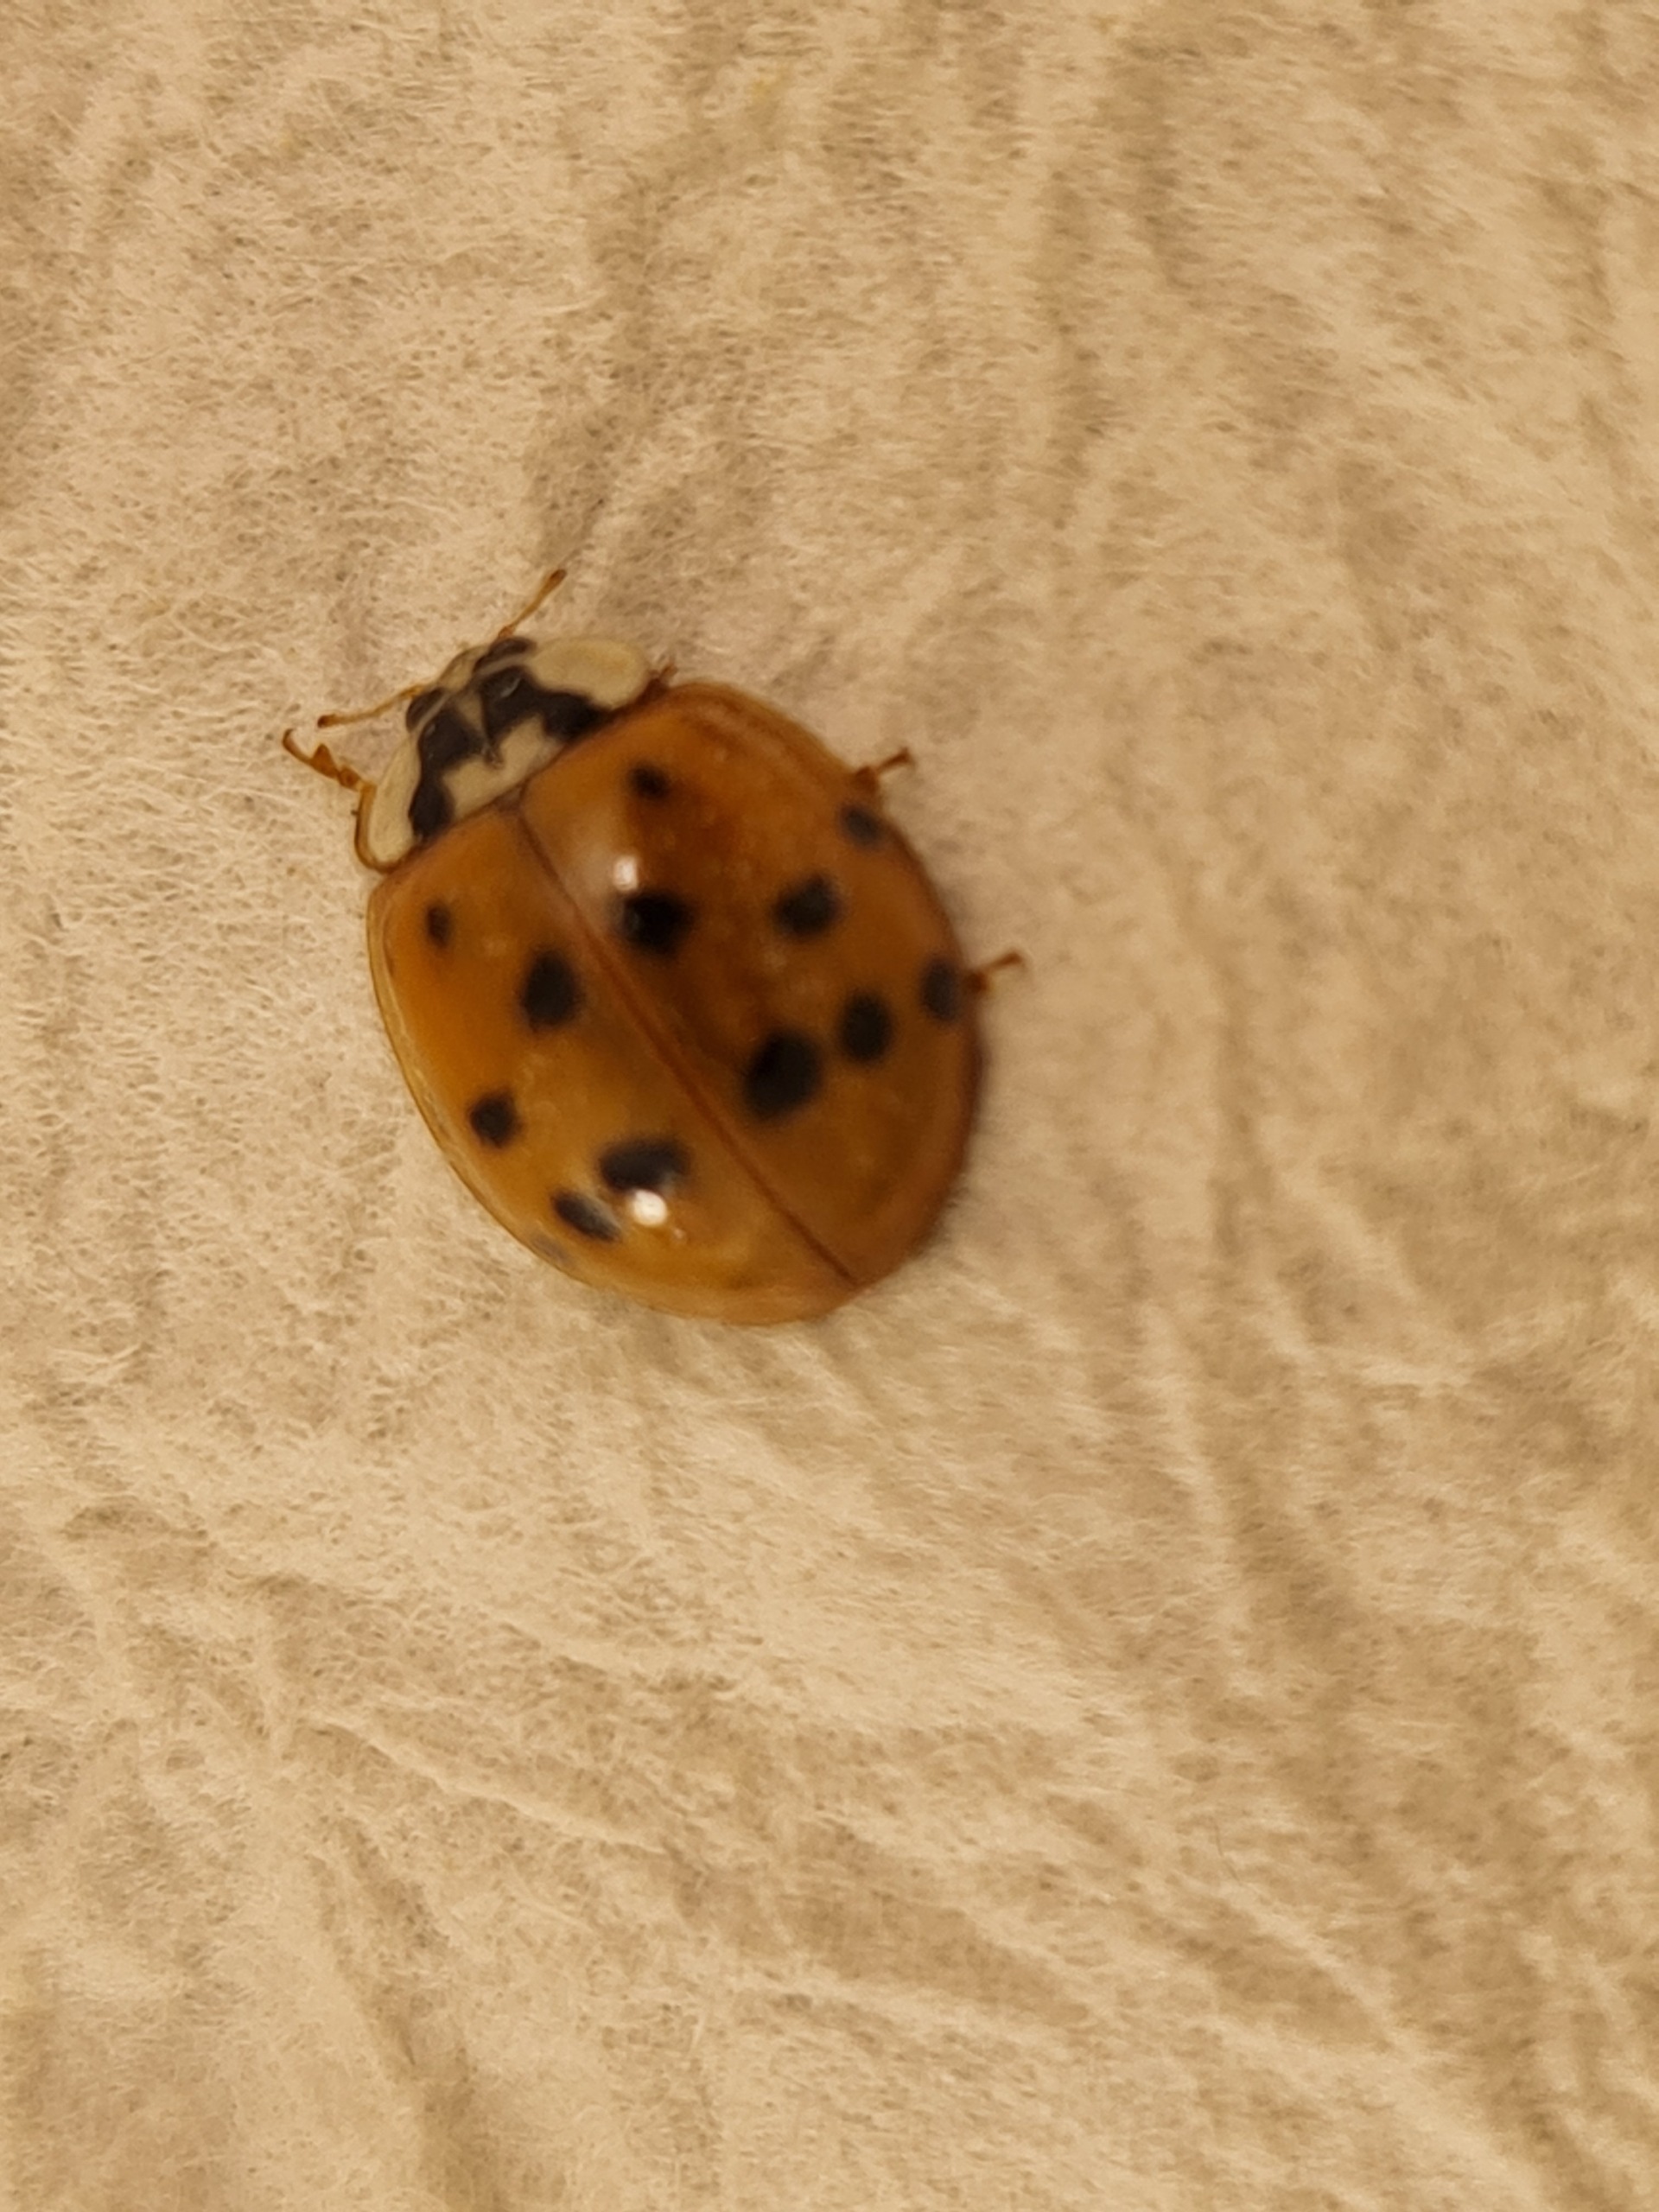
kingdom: Animalia
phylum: Arthropoda
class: Insecta
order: Coleoptera
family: Coccinellidae
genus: Harmonia
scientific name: Harmonia axyridis
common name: Harlekinmariehøne
